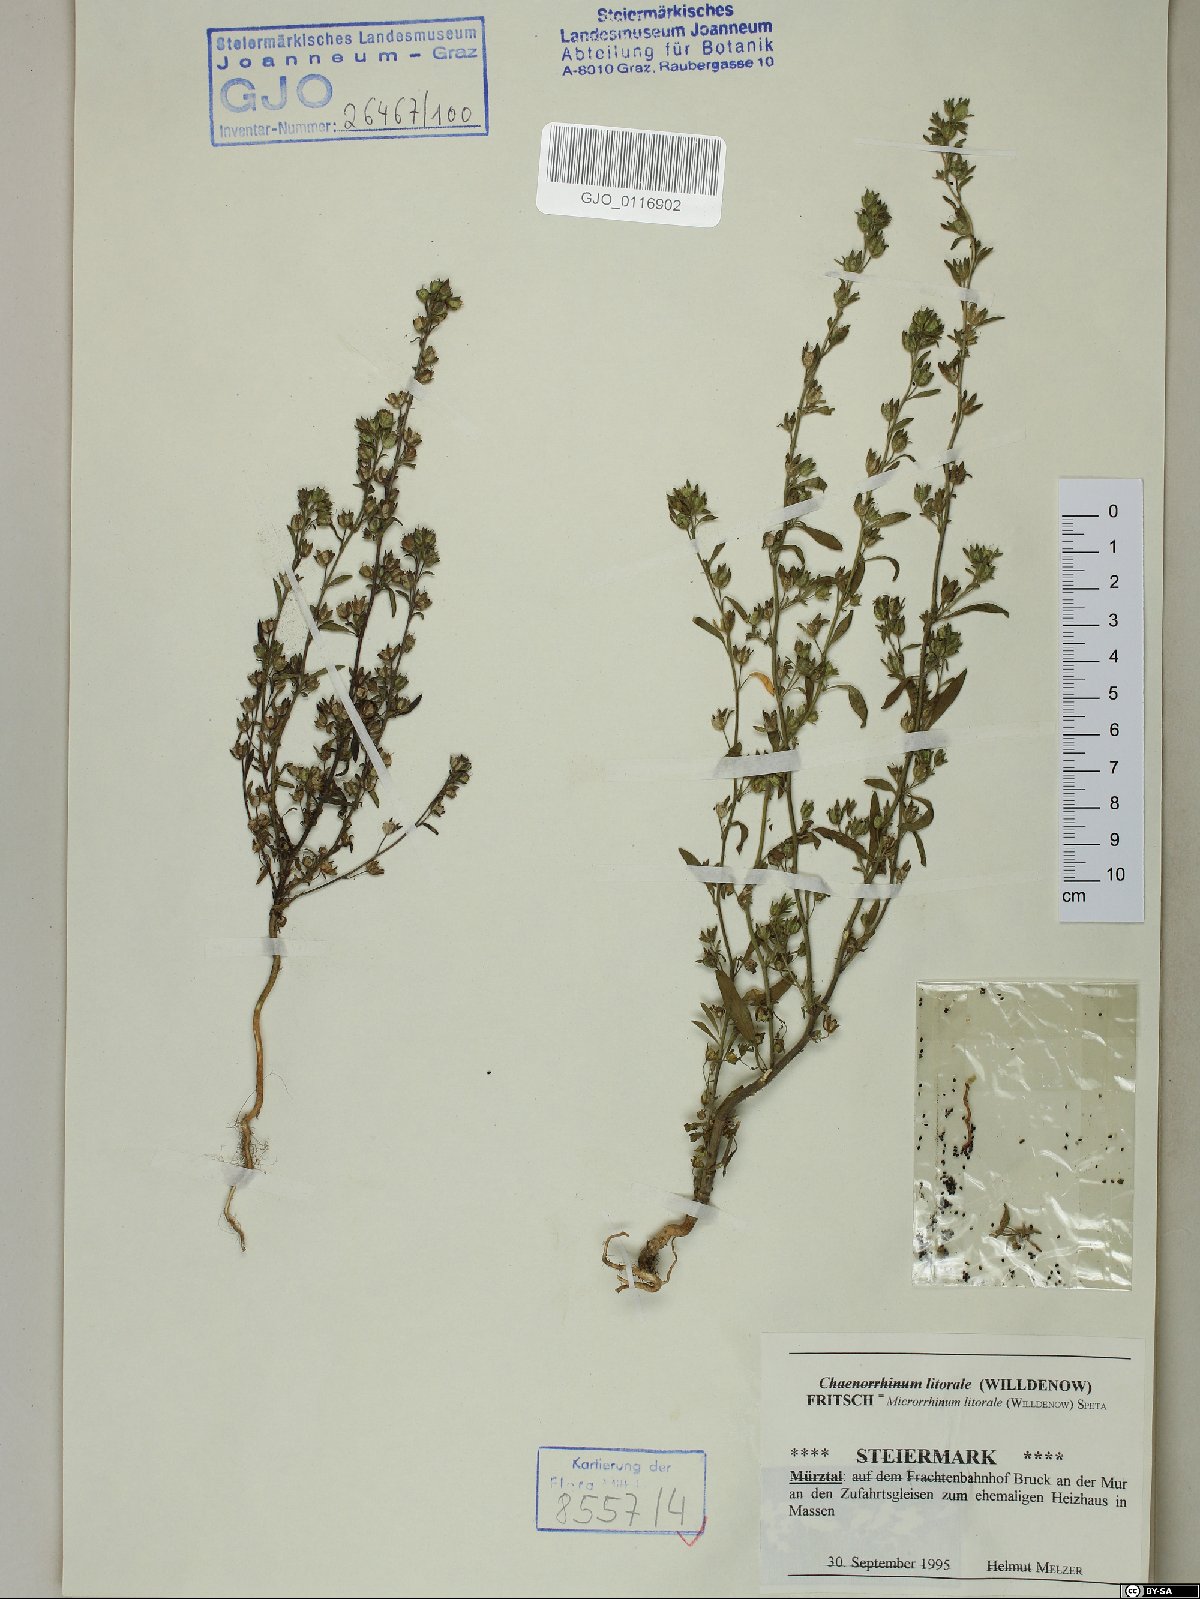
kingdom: Plantae
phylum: Tracheophyta
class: Magnoliopsida
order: Lamiales
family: Plantaginaceae
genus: Chaenorhinum
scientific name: Chaenorhinum litorale
